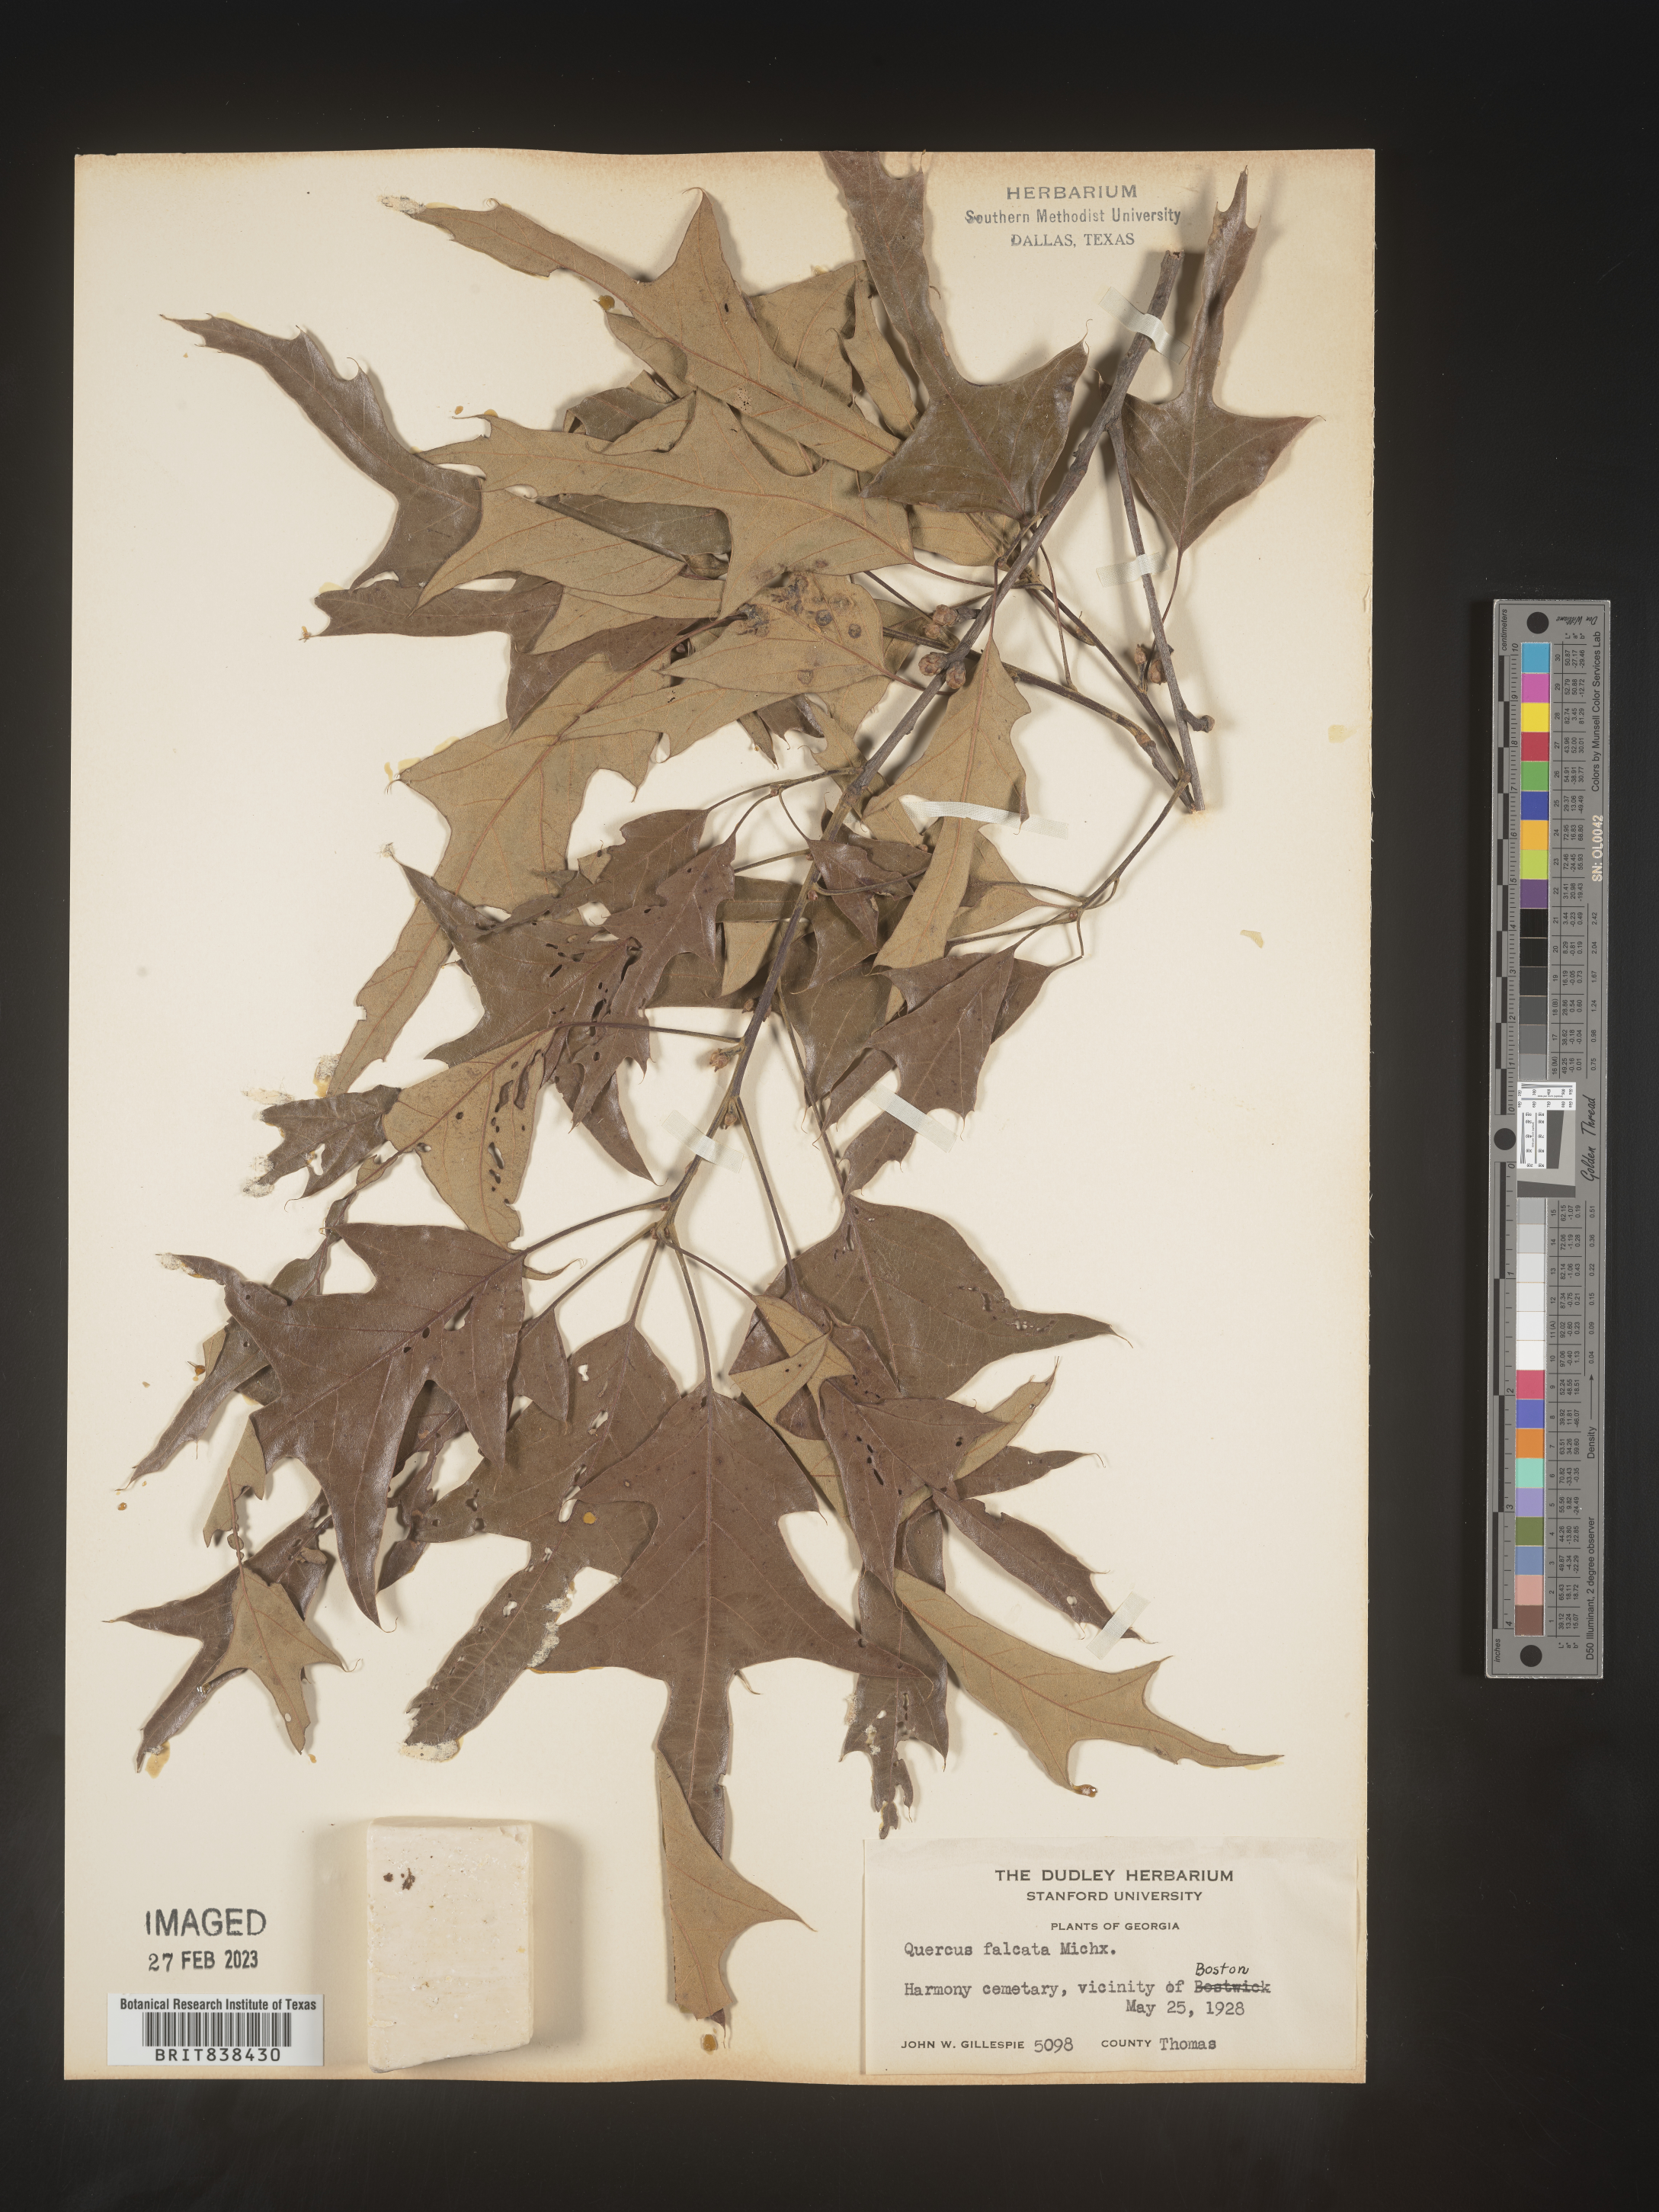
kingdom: Plantae
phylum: Tracheophyta
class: Magnoliopsida
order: Fagales
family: Fagaceae
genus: Quercus
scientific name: Quercus falcata
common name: Southern red oak
